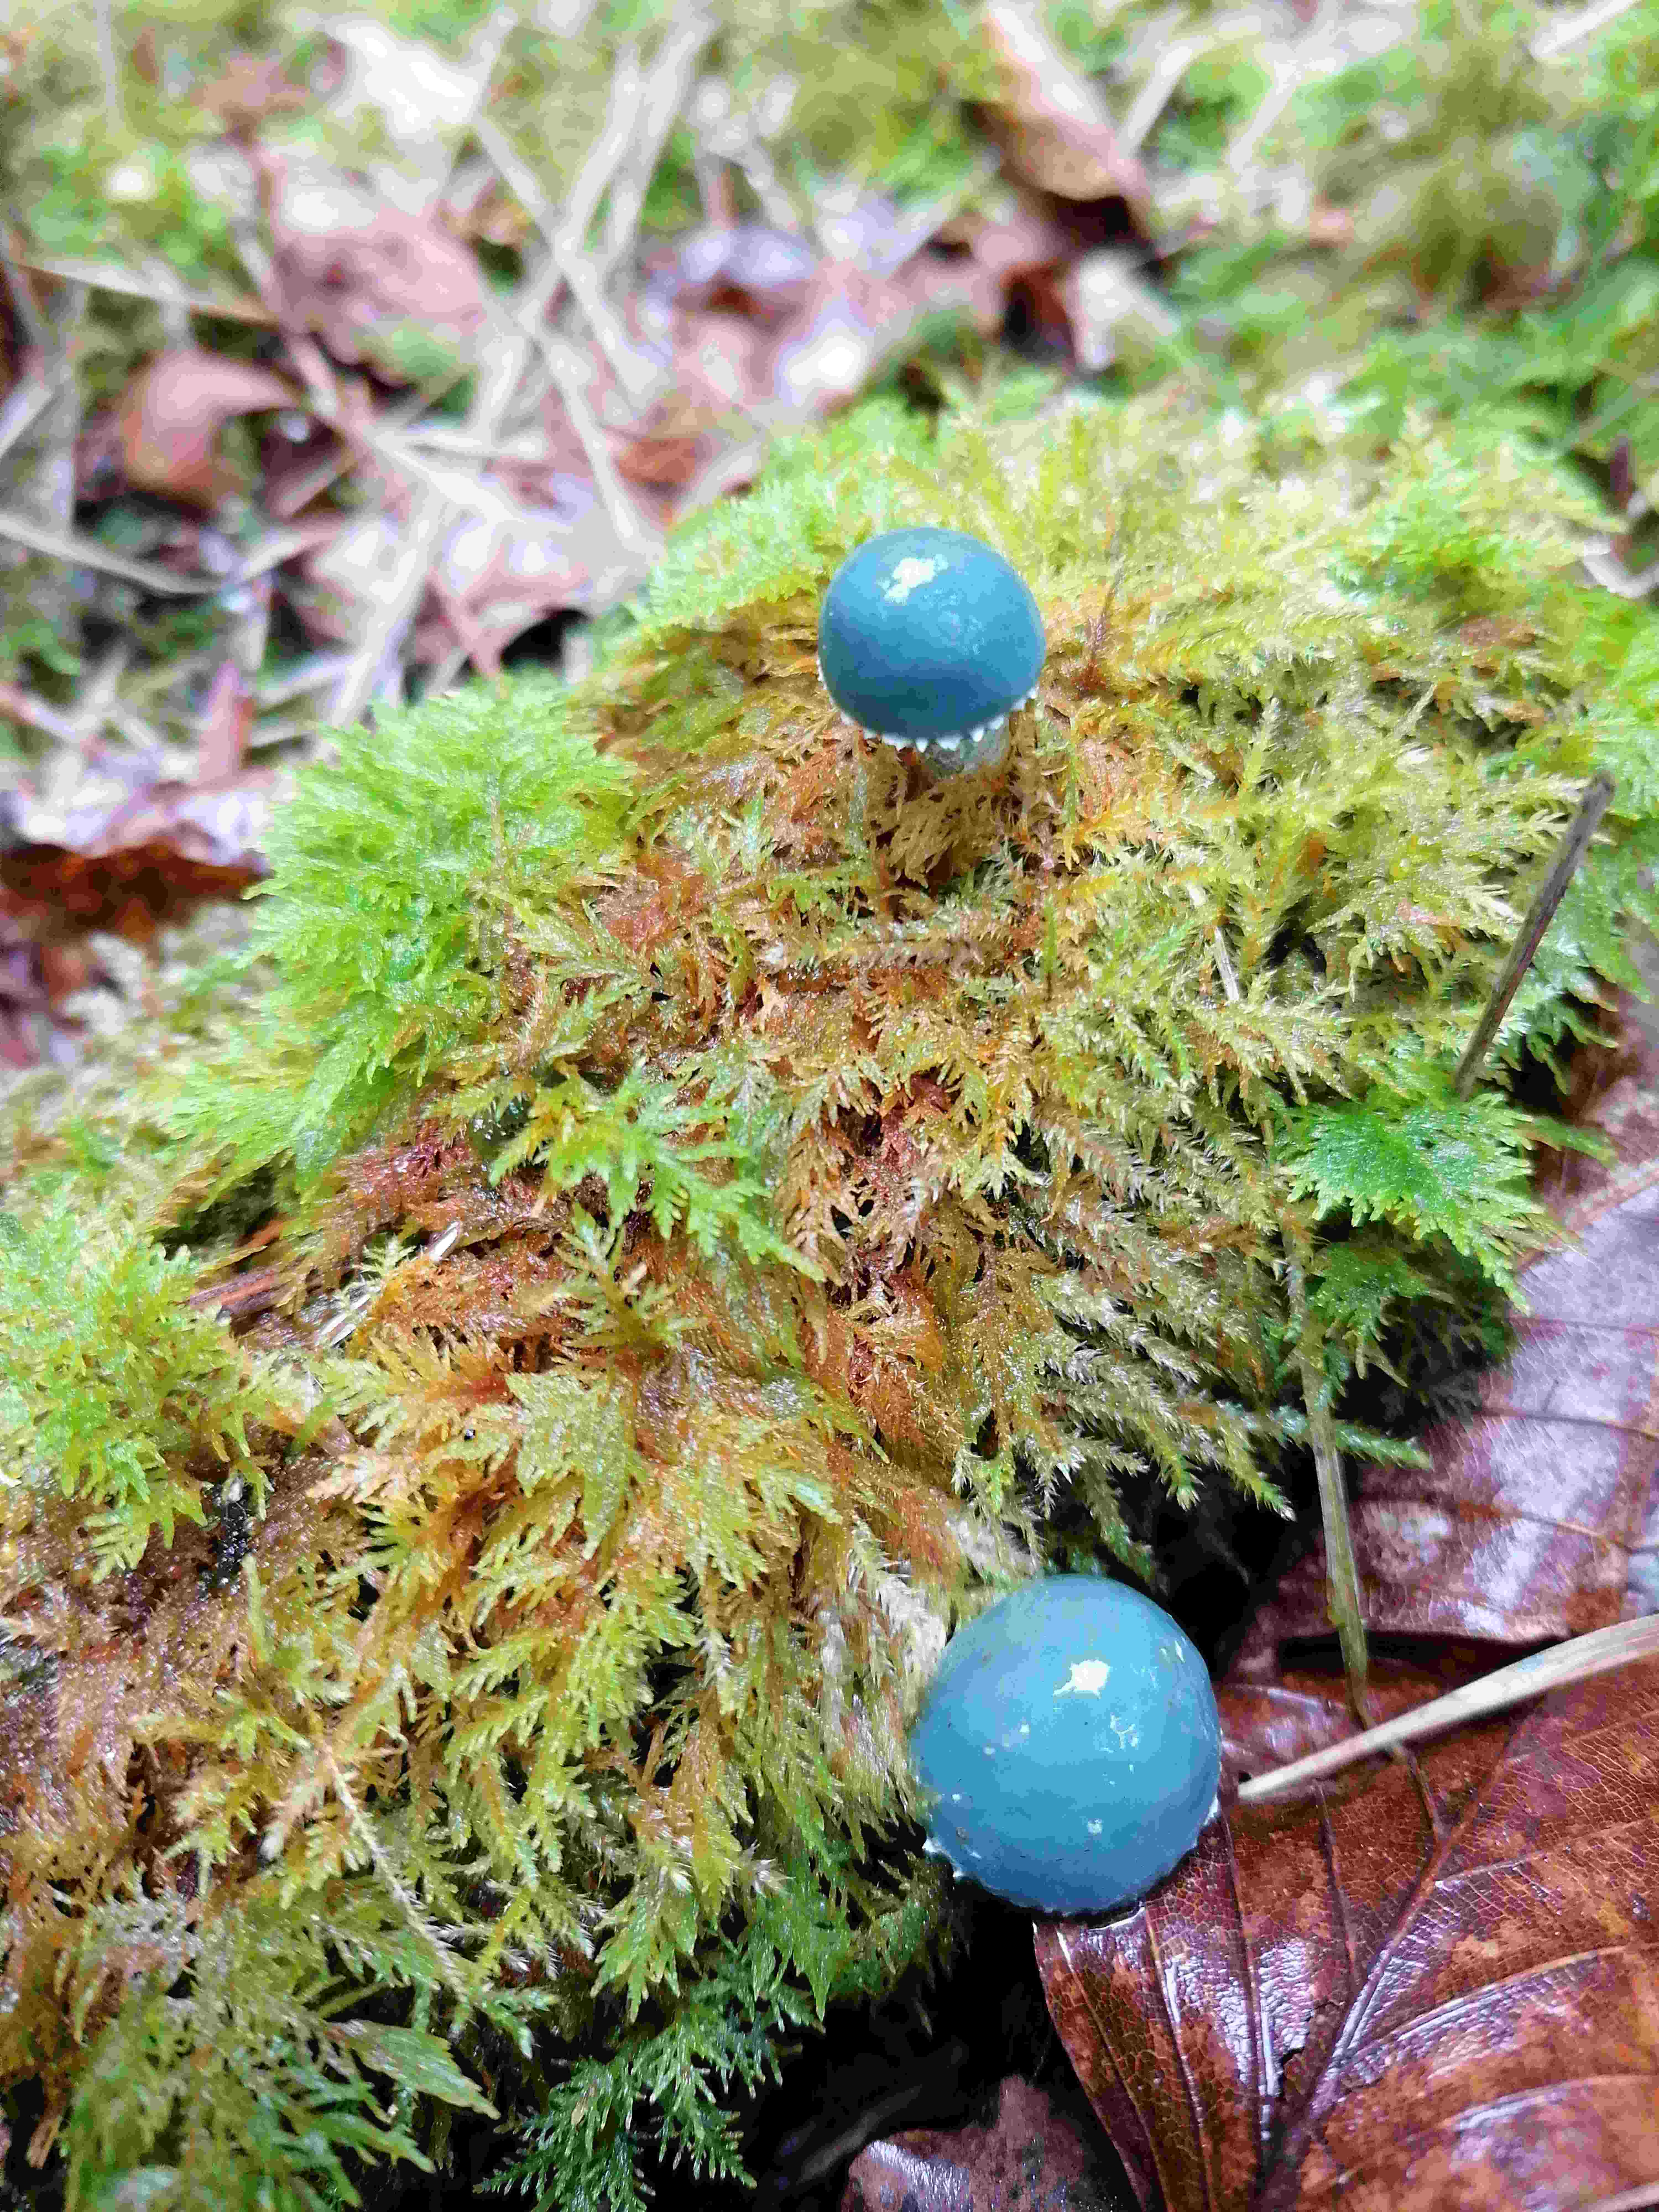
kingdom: Fungi
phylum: Basidiomycota
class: Agaricomycetes
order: Agaricales
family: Strophariaceae
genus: Stropharia
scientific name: Stropharia
